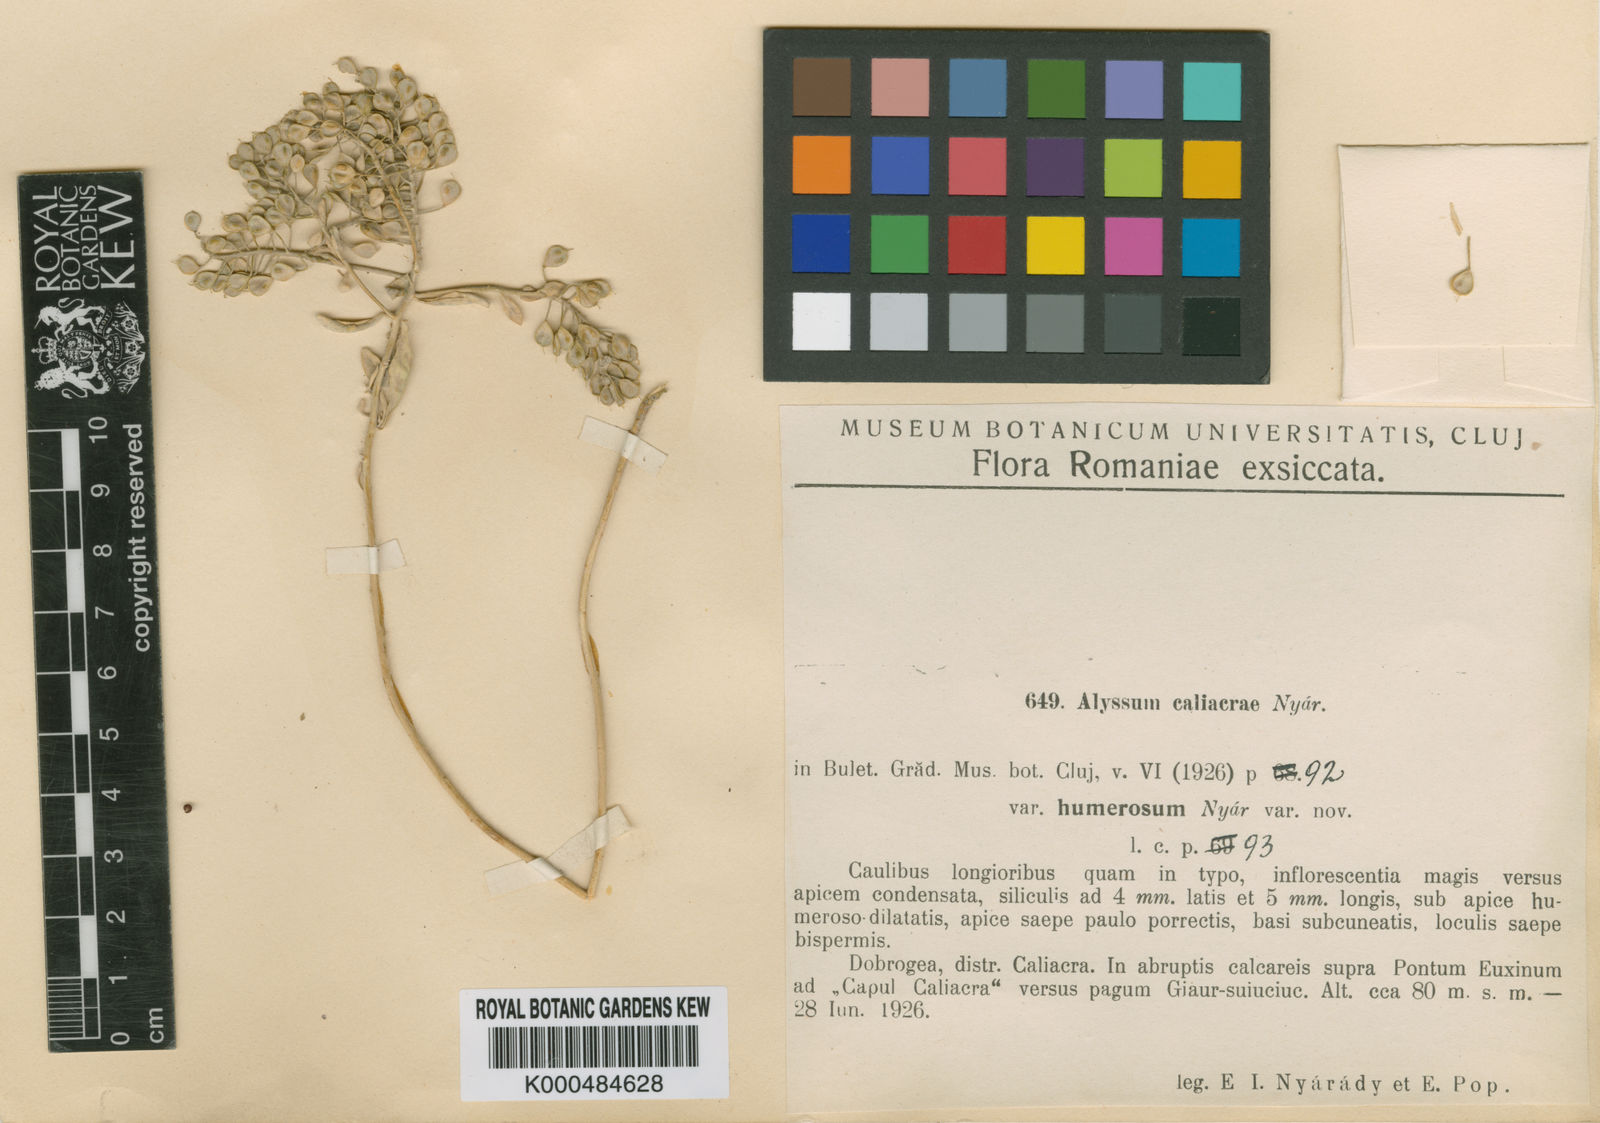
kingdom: Plantae
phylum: Tracheophyta
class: Magnoliopsida
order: Brassicales
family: Brassicaceae
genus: Odontarrhena
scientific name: Odontarrhena caliacrae
